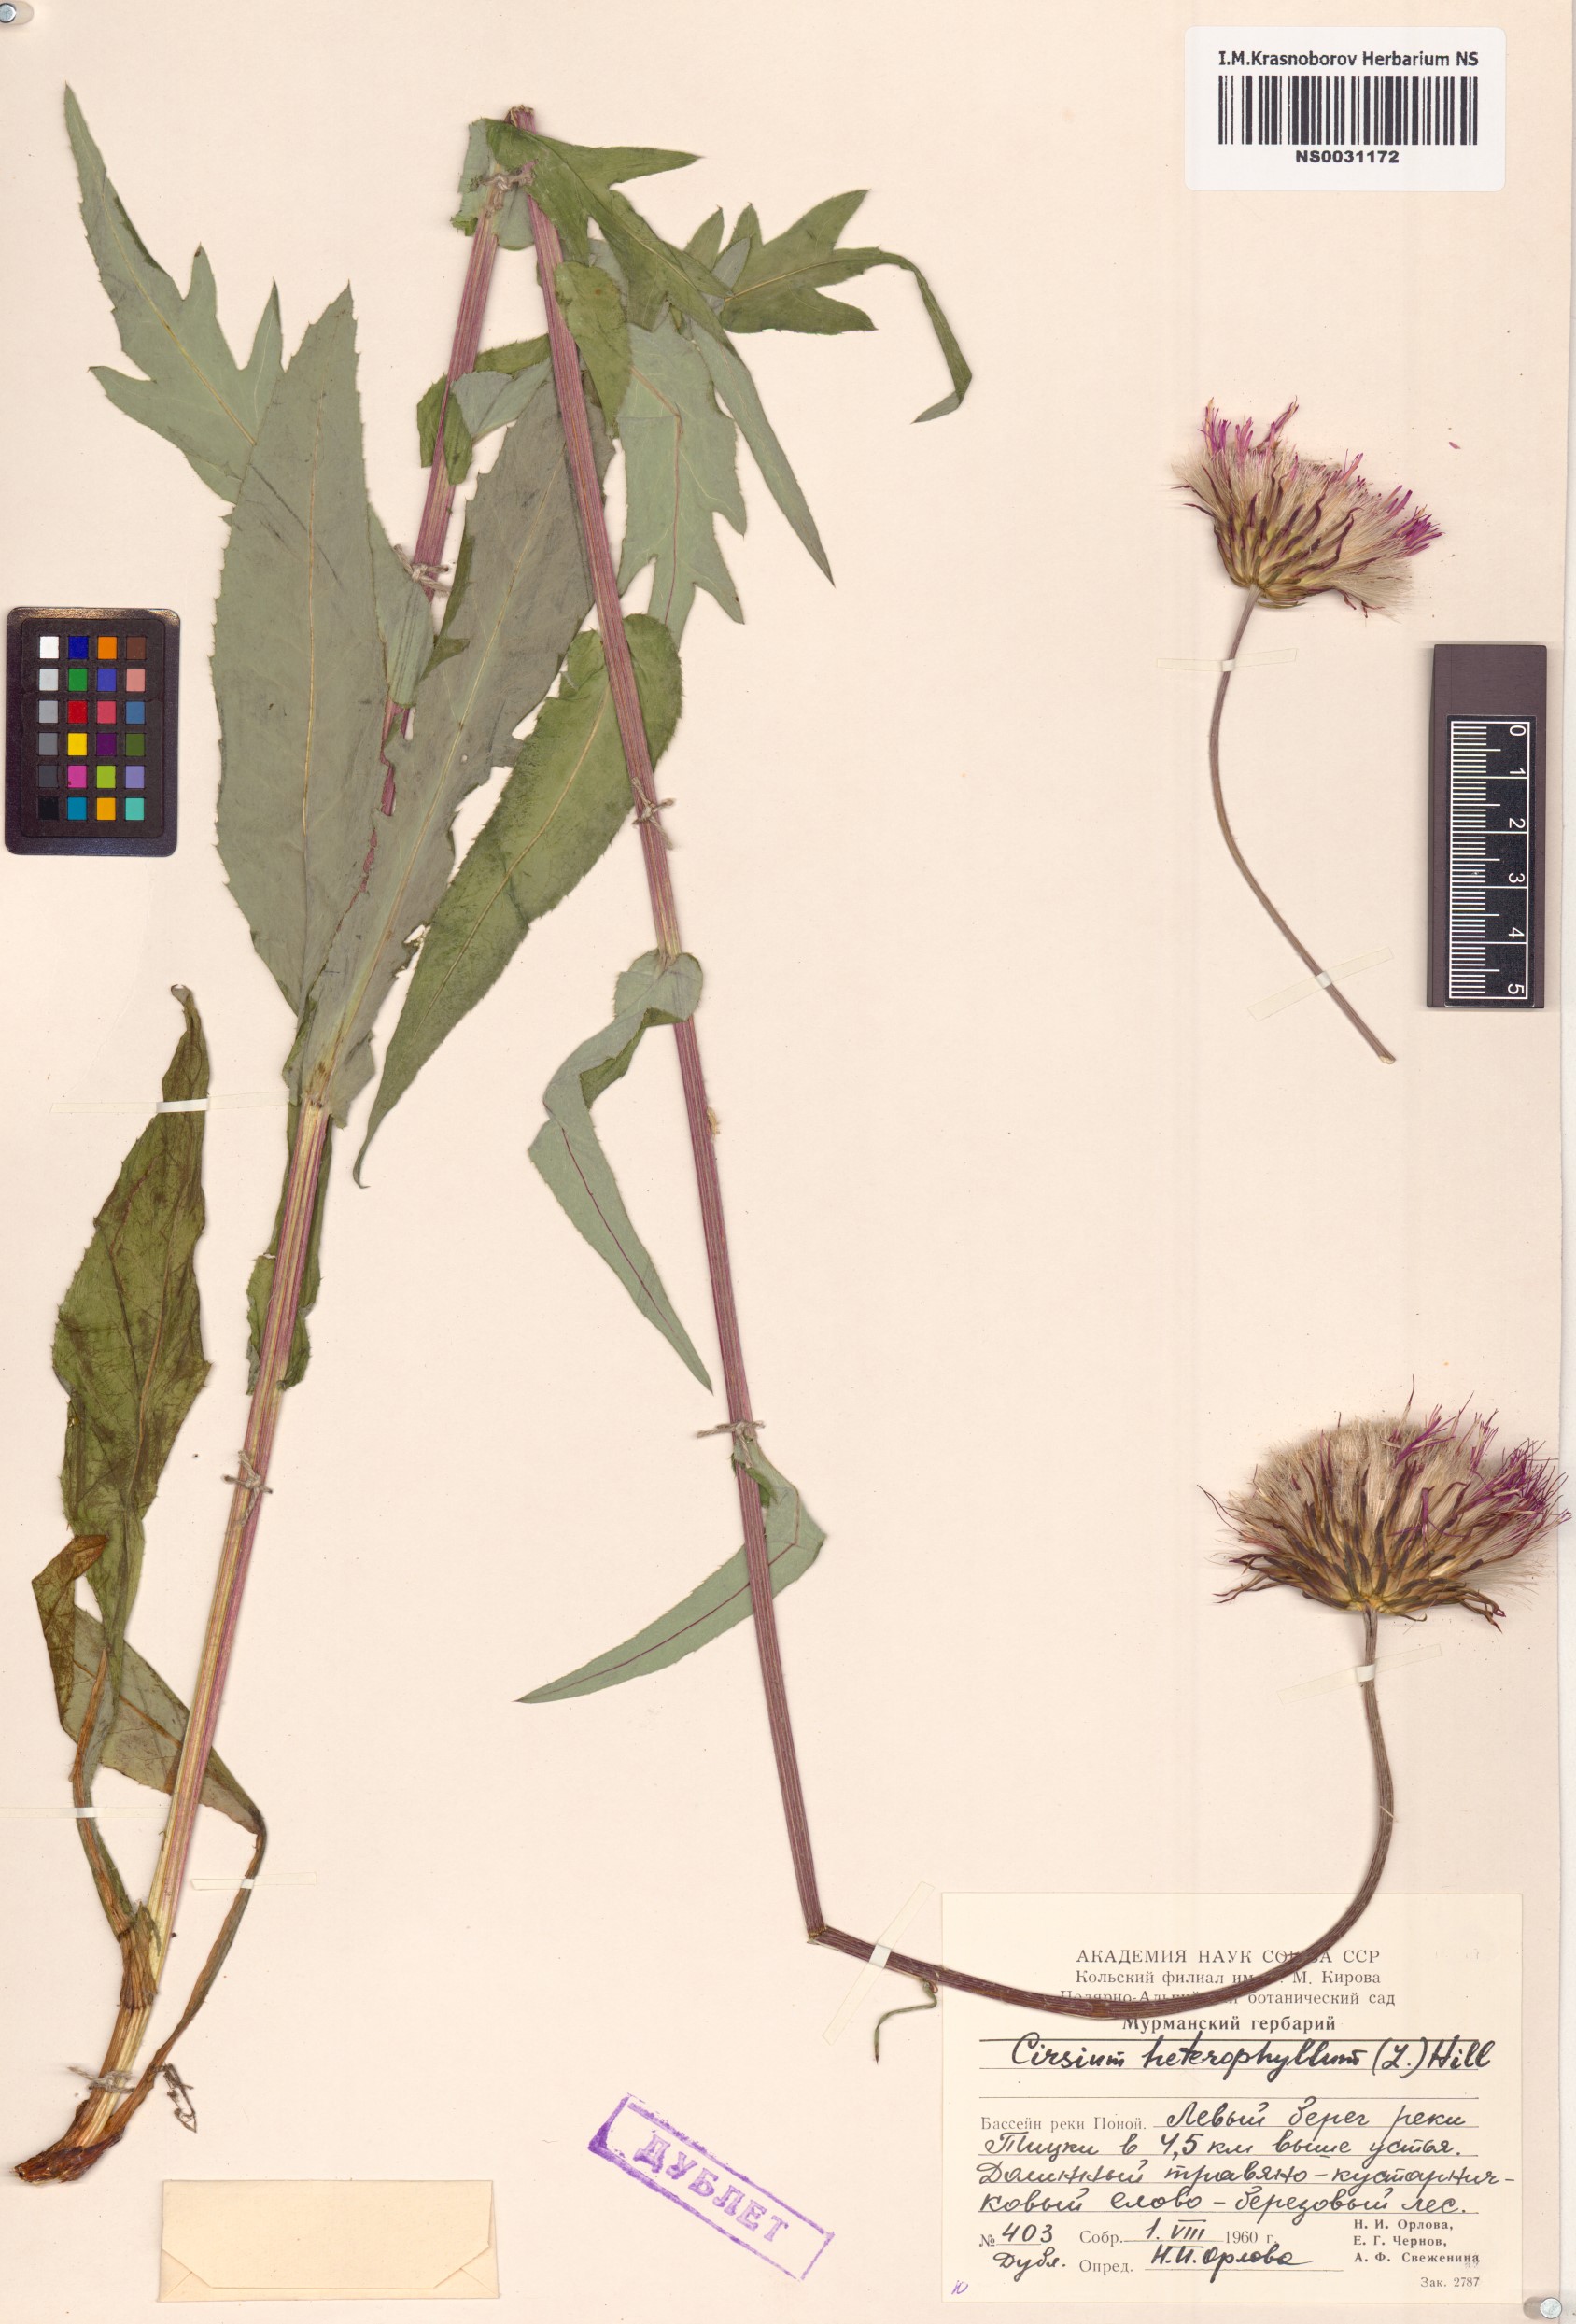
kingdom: Plantae
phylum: Tracheophyta
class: Magnoliopsida
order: Asterales
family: Asteraceae
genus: Cirsium
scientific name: Cirsium heterophyllum
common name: Melancholy thistle
